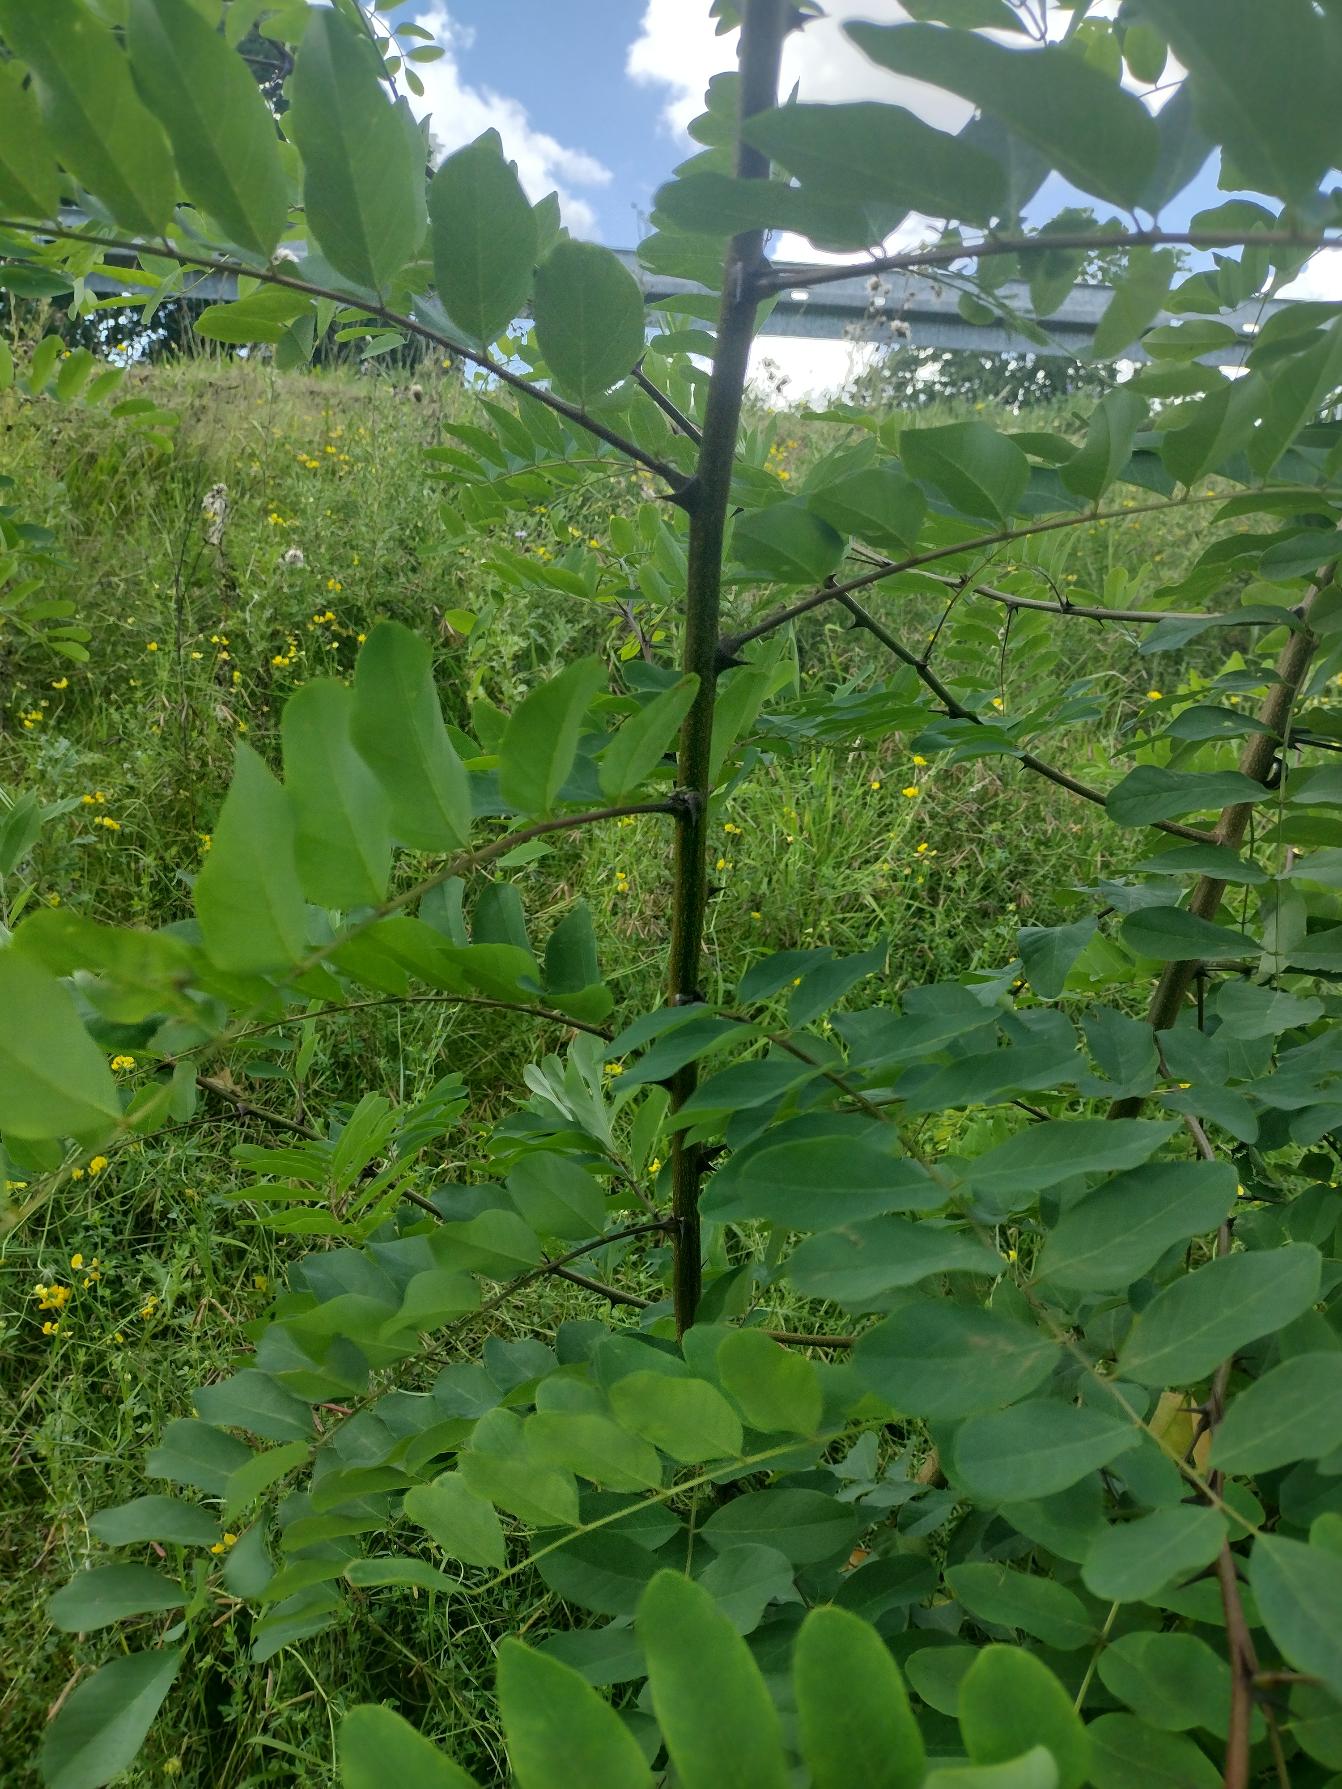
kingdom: Plantae
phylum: Tracheophyta
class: Magnoliopsida
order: Fabales
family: Fabaceae
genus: Robinia
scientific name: Robinia pseudoacacia
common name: Robinie
